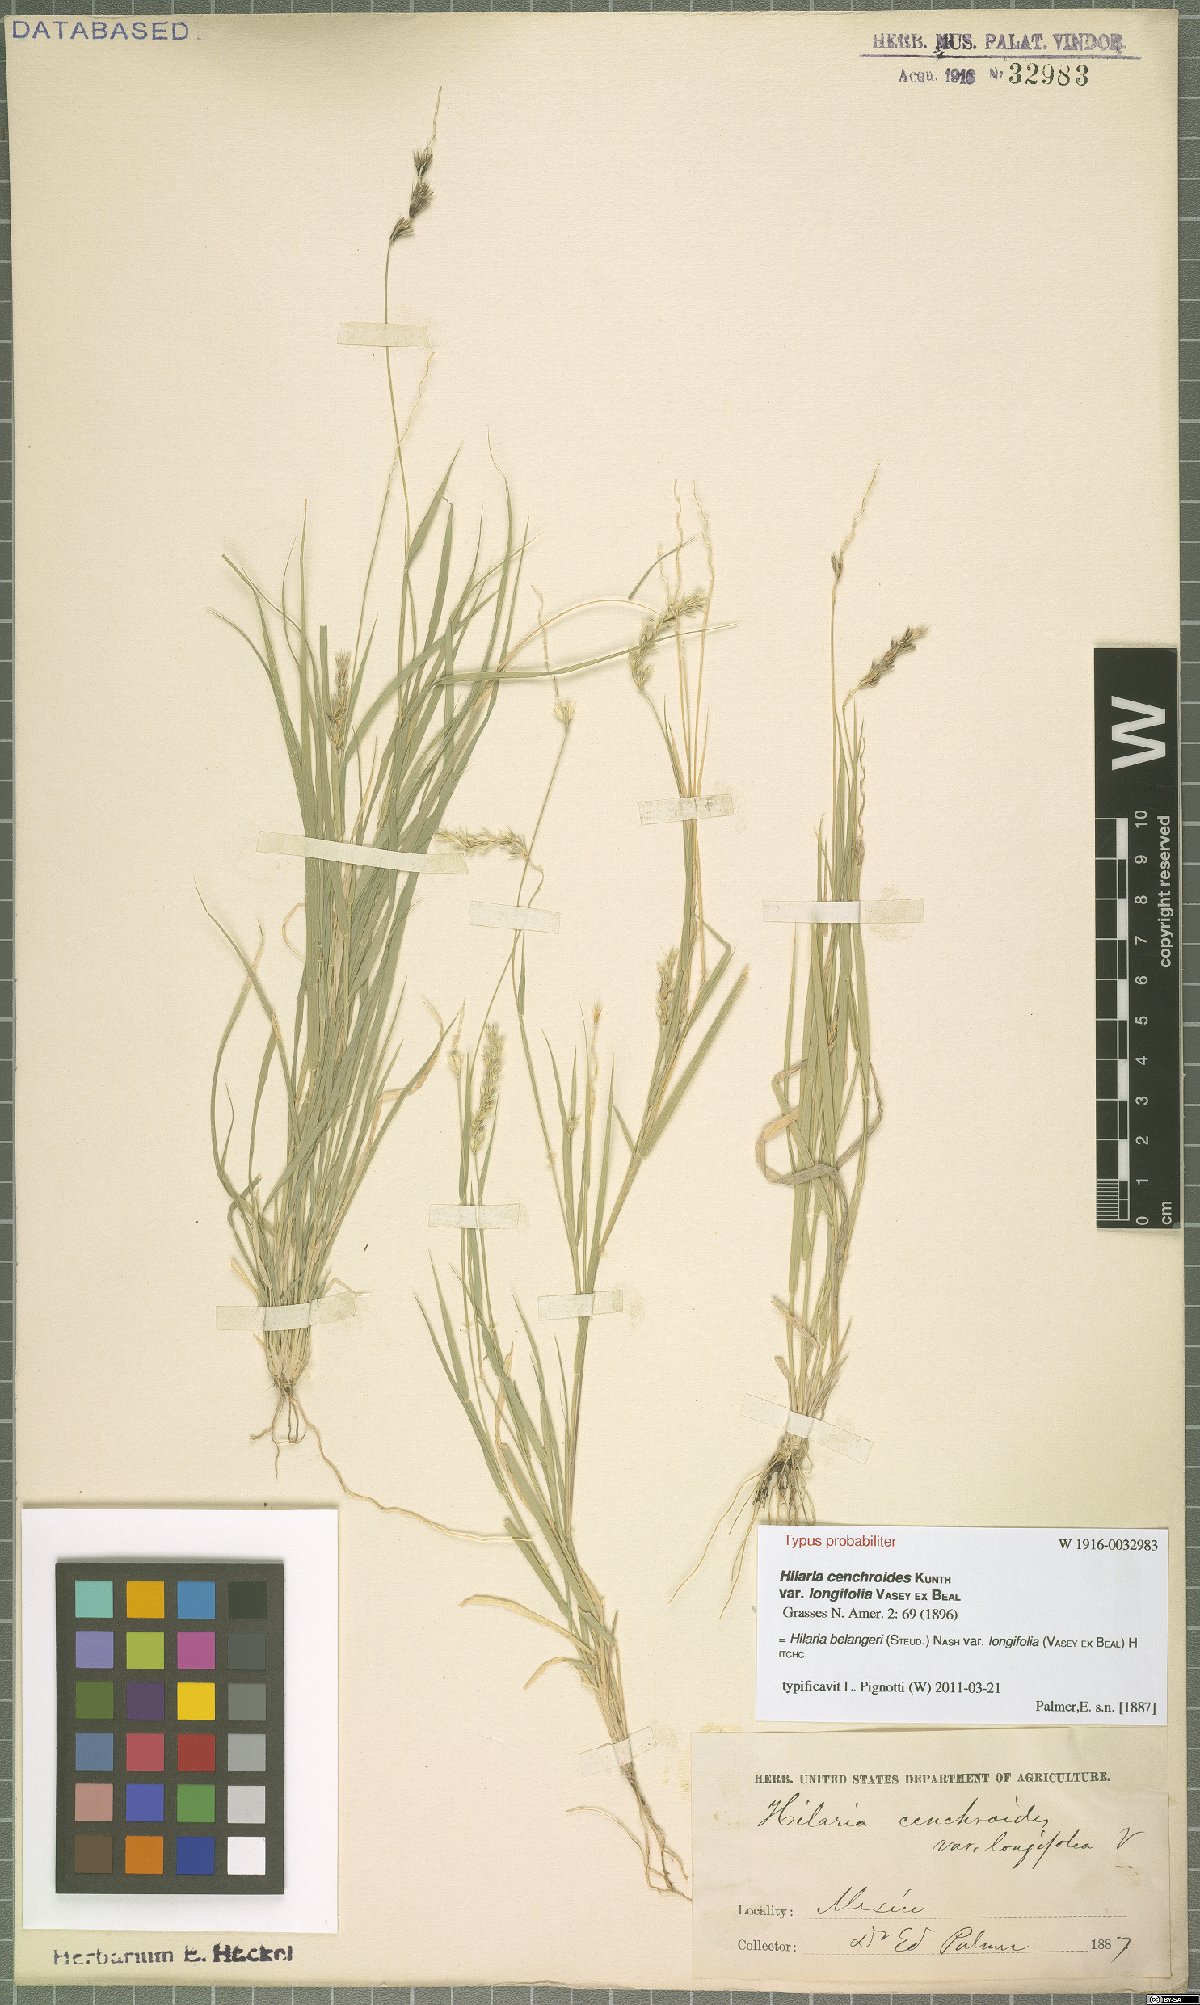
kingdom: Plantae
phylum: Tracheophyta
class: Liliopsida
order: Poales
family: Poaceae
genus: Hilaria
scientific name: Hilaria belangeri
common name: Curly-mesquite
